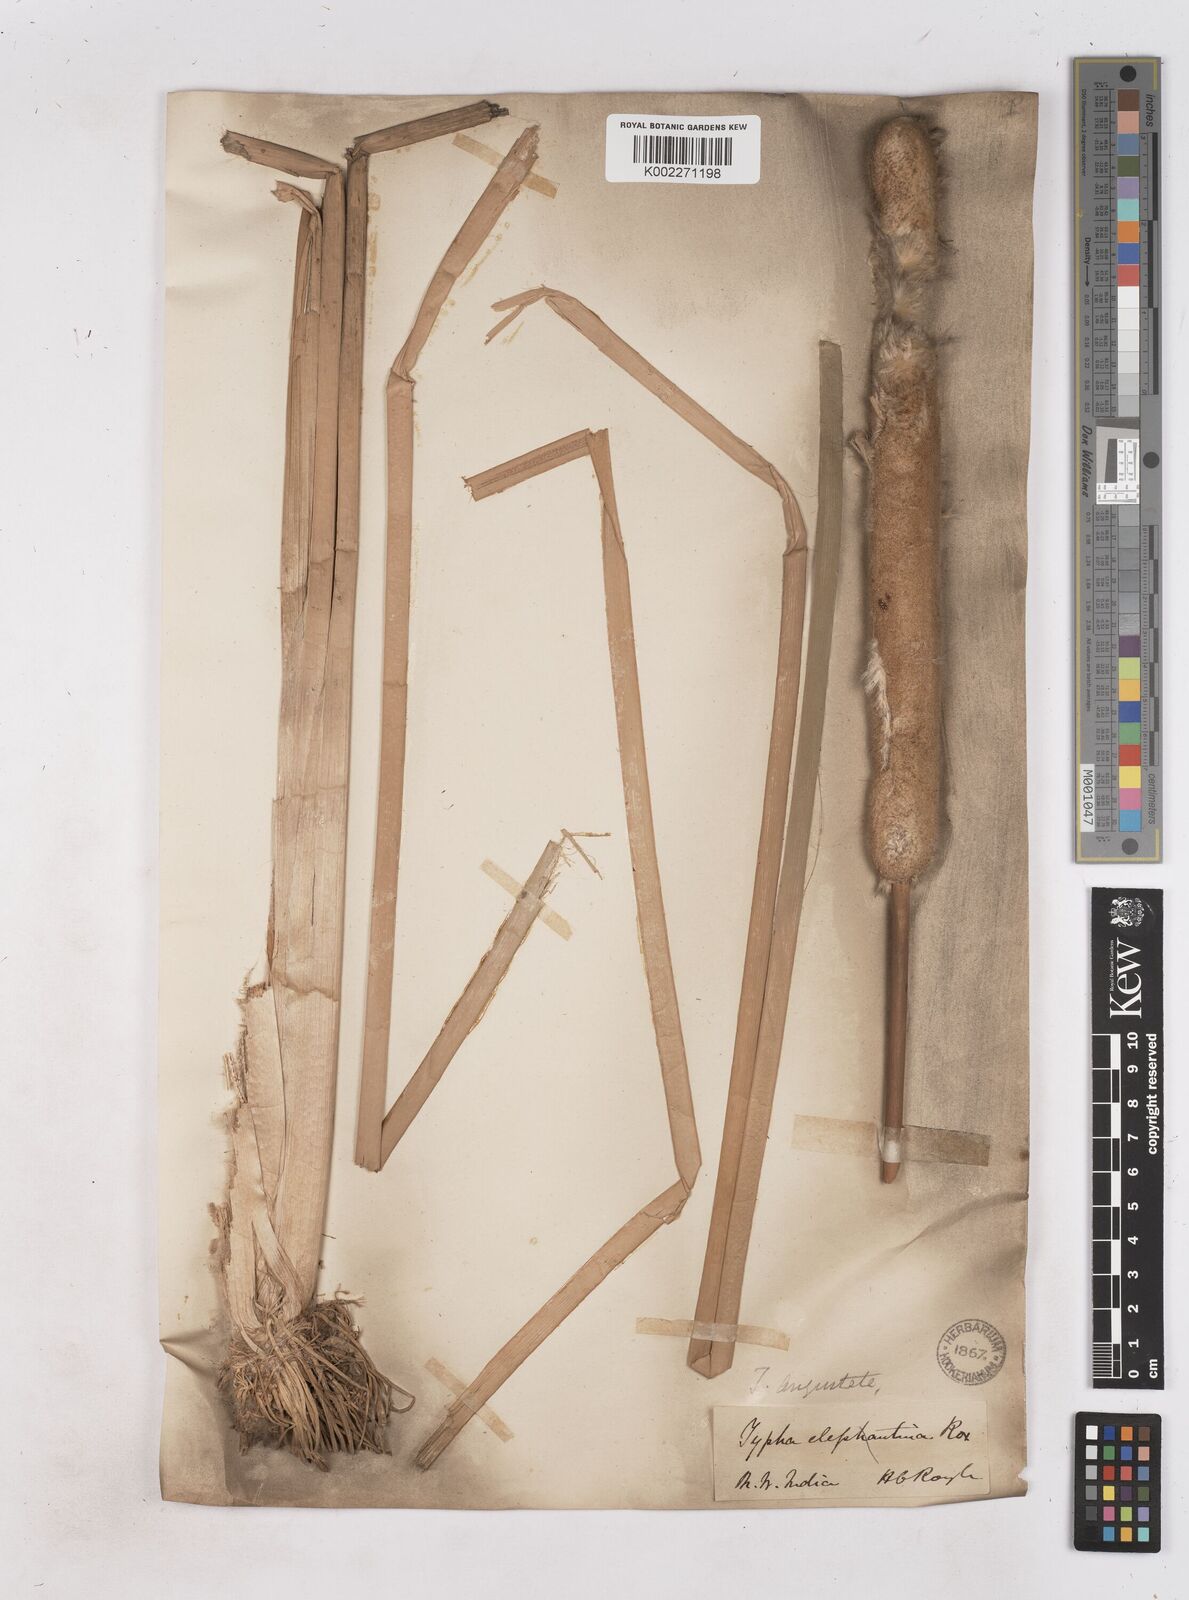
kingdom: Plantae
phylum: Tracheophyta
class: Liliopsida
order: Poales
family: Typhaceae
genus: Typha
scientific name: Typha domingensis
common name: Southern cattail
